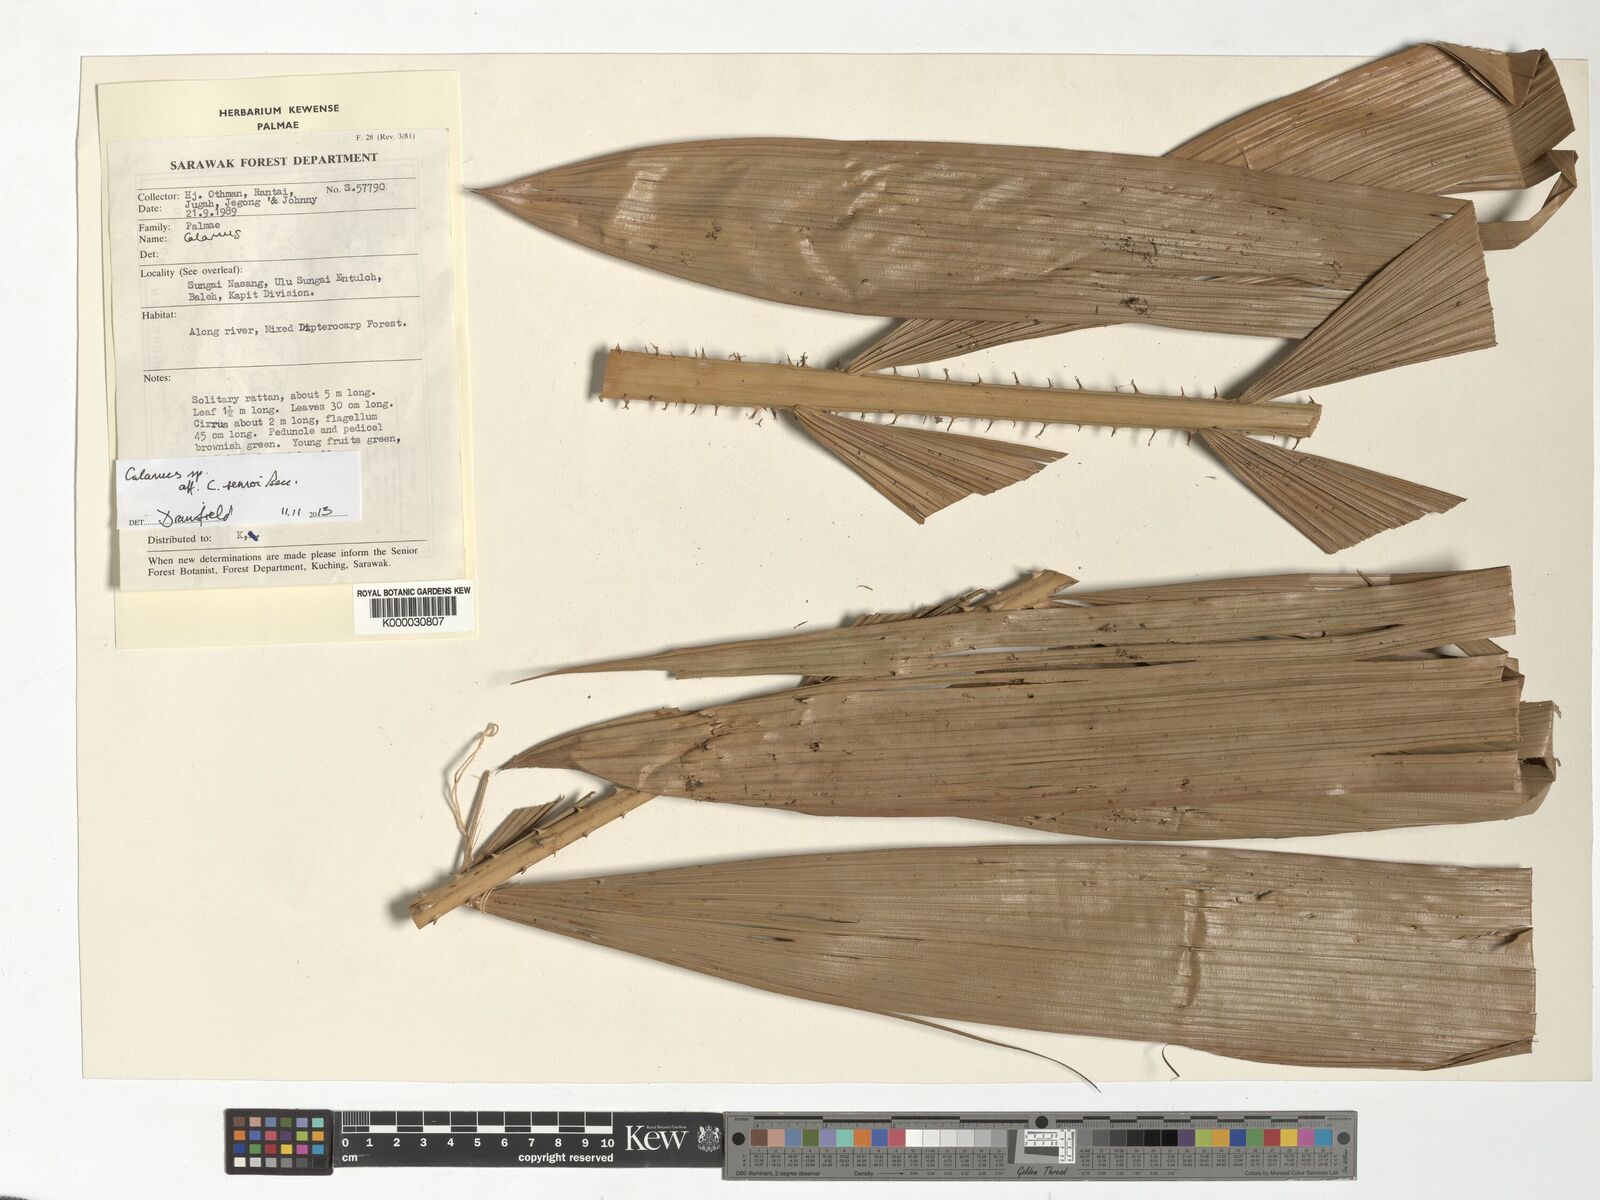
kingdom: Plantae
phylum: Tracheophyta
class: Liliopsida
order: Arecales
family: Arecaceae
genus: Calamus
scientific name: Calamus
